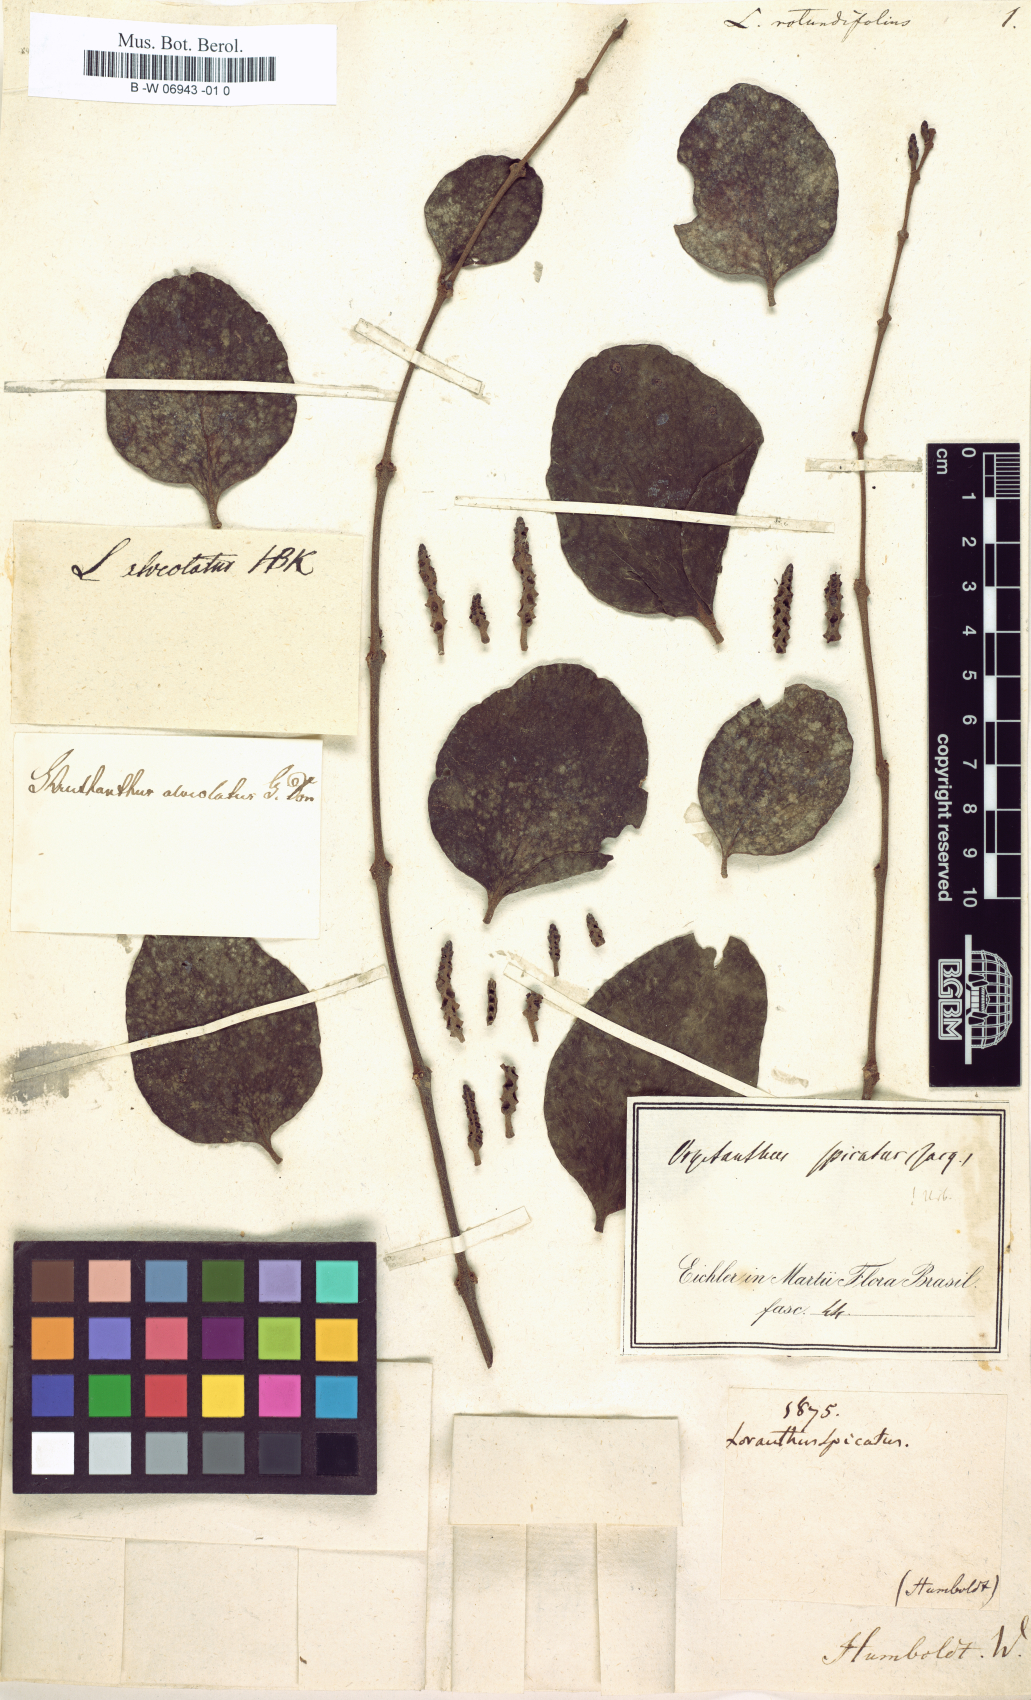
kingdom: Plantae
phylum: Tracheophyta
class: Magnoliopsida
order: Santalales
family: Loranthaceae
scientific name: Loranthaceae
